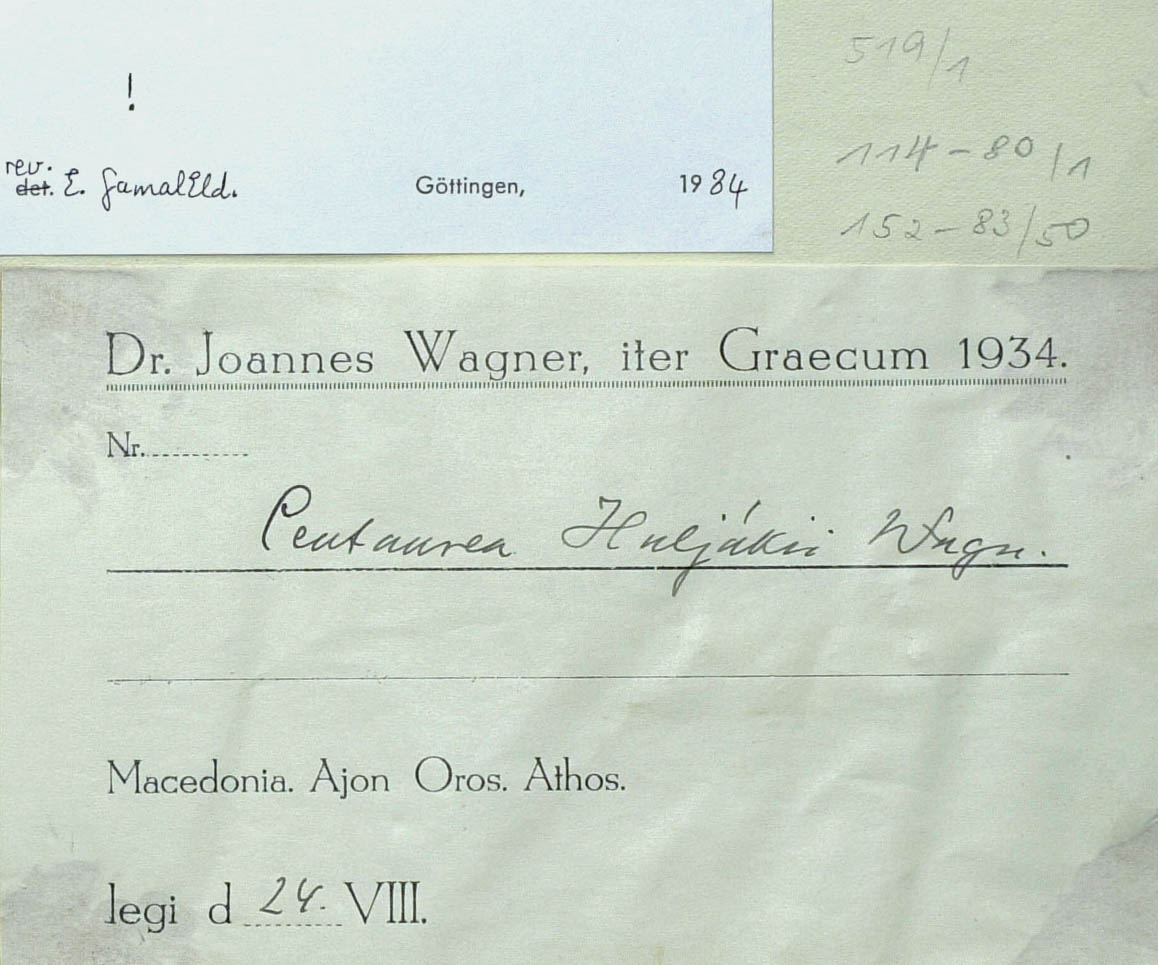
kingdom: Plantae
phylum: Tracheophyta
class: Magnoliopsida
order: Asterales
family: Asteraceae
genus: Centaurea
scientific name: Centaurea huljakii
